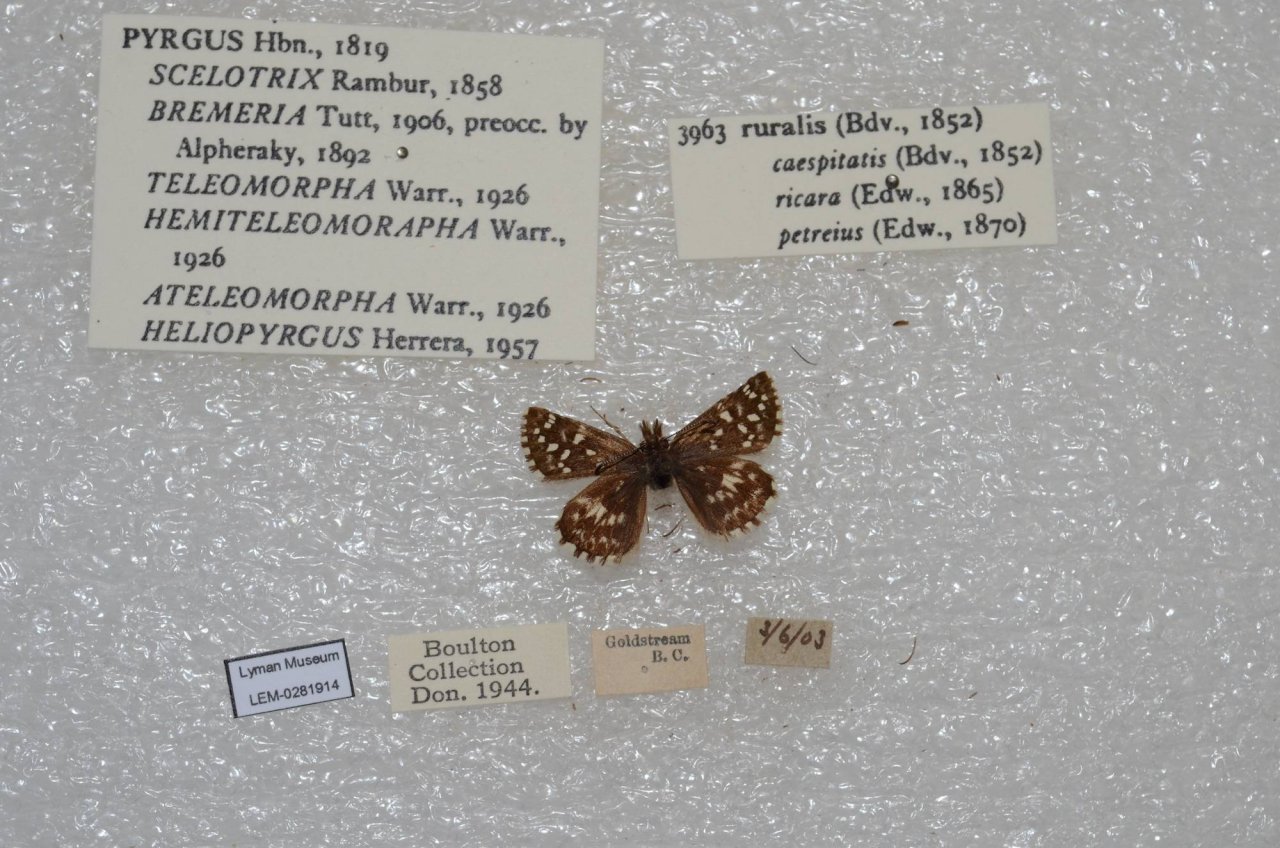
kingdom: Animalia
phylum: Arthropoda
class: Insecta
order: Lepidoptera
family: Hesperiidae
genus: Pyrgus
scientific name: Pyrgus ruralis
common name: Two-banded Checkered-Skipper
